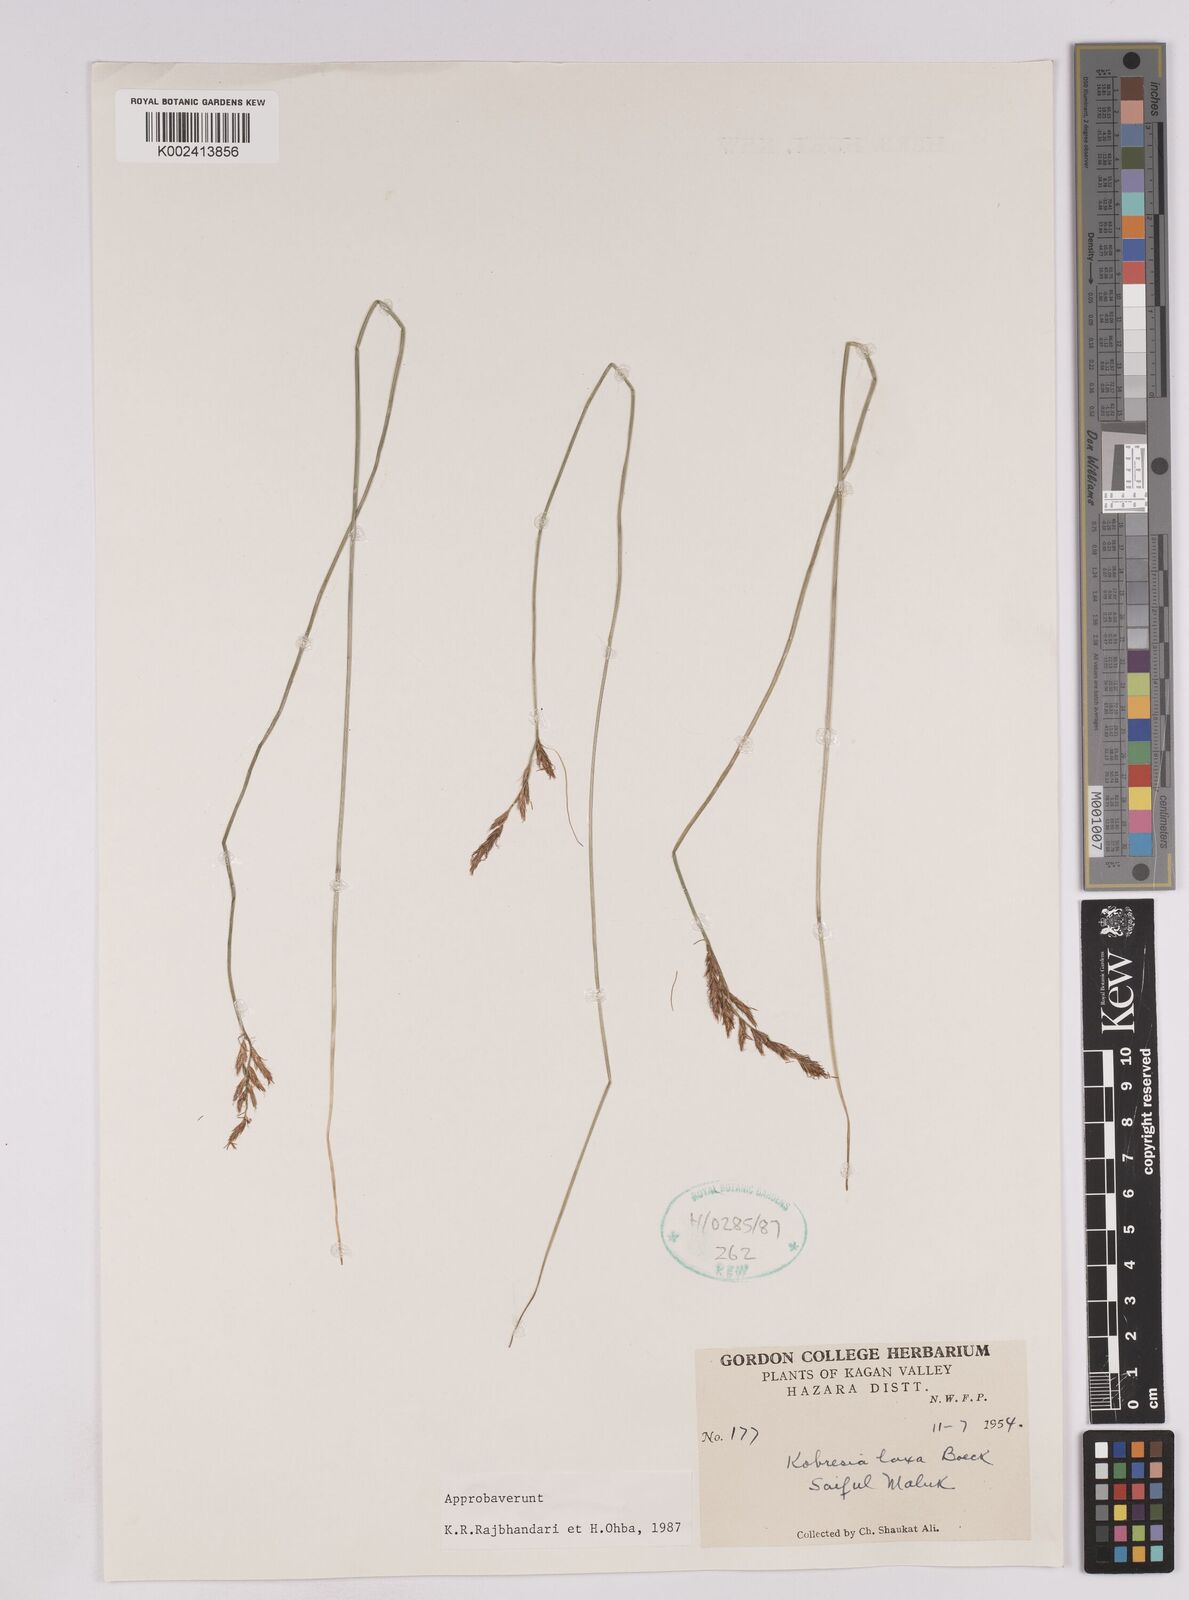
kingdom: Plantae
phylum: Tracheophyta
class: Liliopsida
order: Poales
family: Cyperaceae
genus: Carex
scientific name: Carex pseudolaxa
